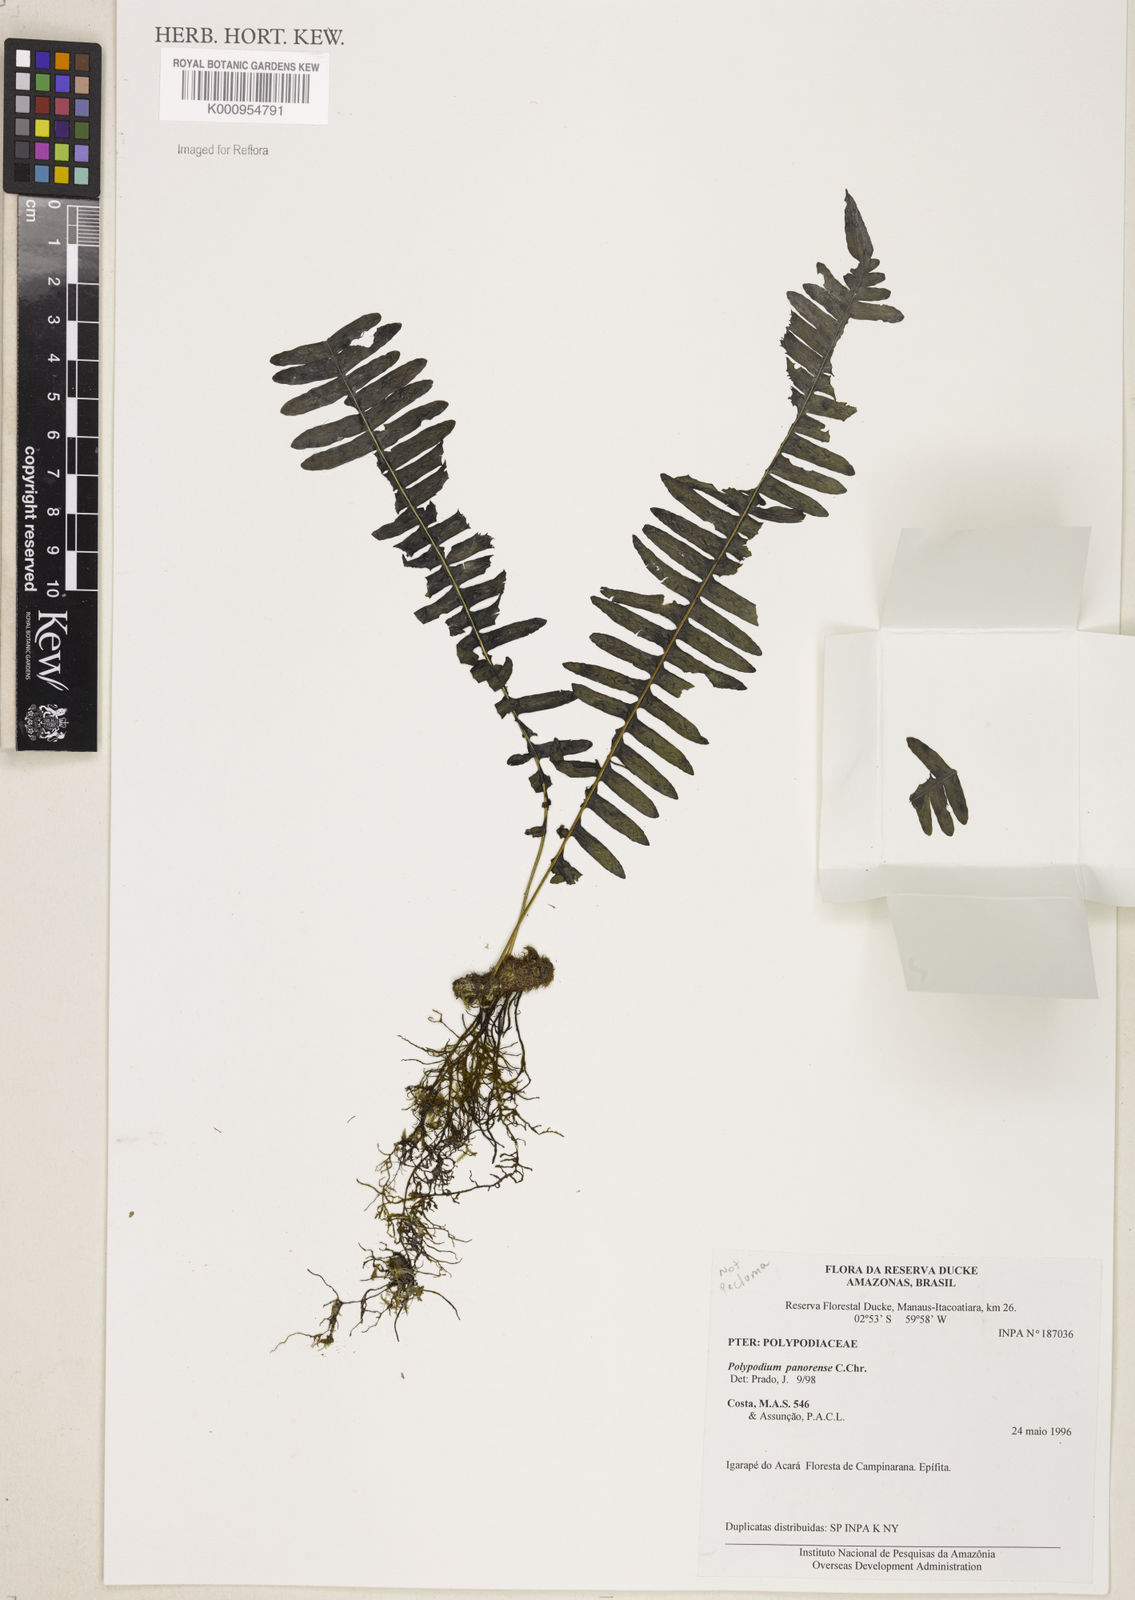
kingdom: Plantae
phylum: Tracheophyta
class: Polypodiopsida
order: Polypodiales
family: Polypodiaceae
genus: Pecluma
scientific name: Pecluma
